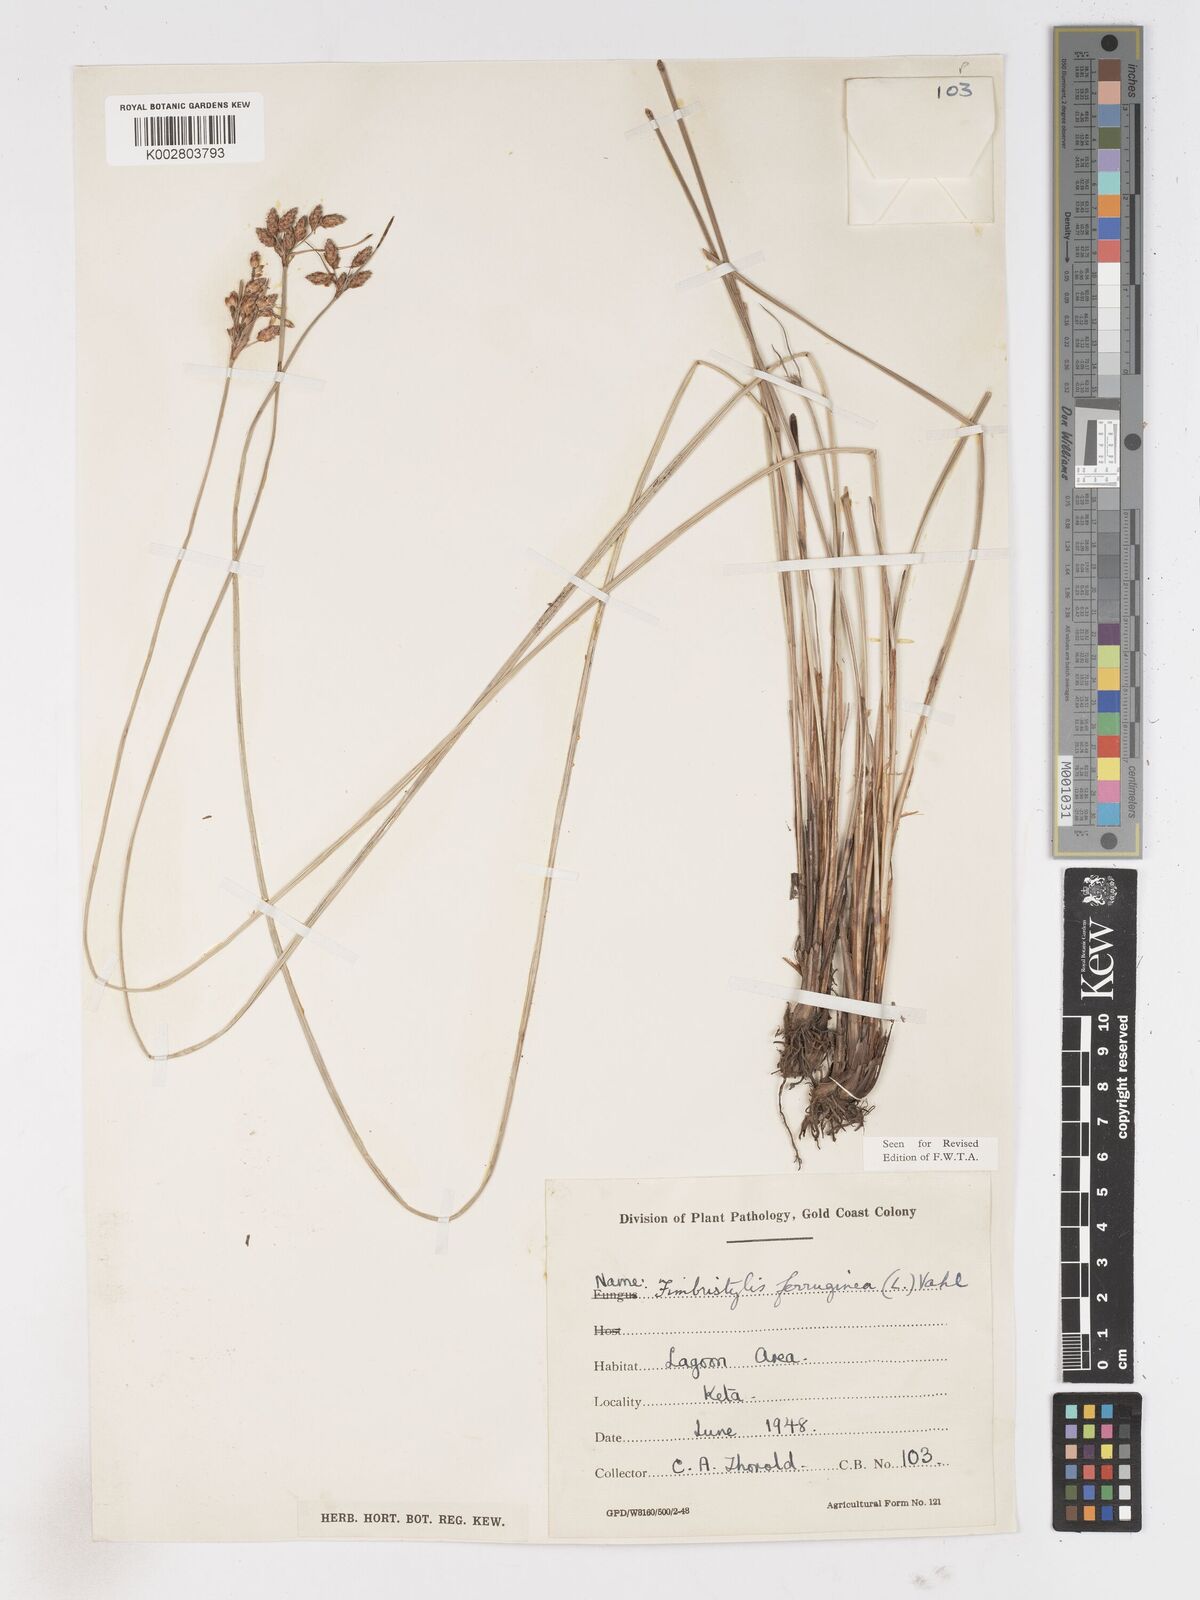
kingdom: Plantae
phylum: Tracheophyta
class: Liliopsida
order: Poales
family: Cyperaceae
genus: Fimbristylis
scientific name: Fimbristylis ferruginea
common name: West indian fimbry
